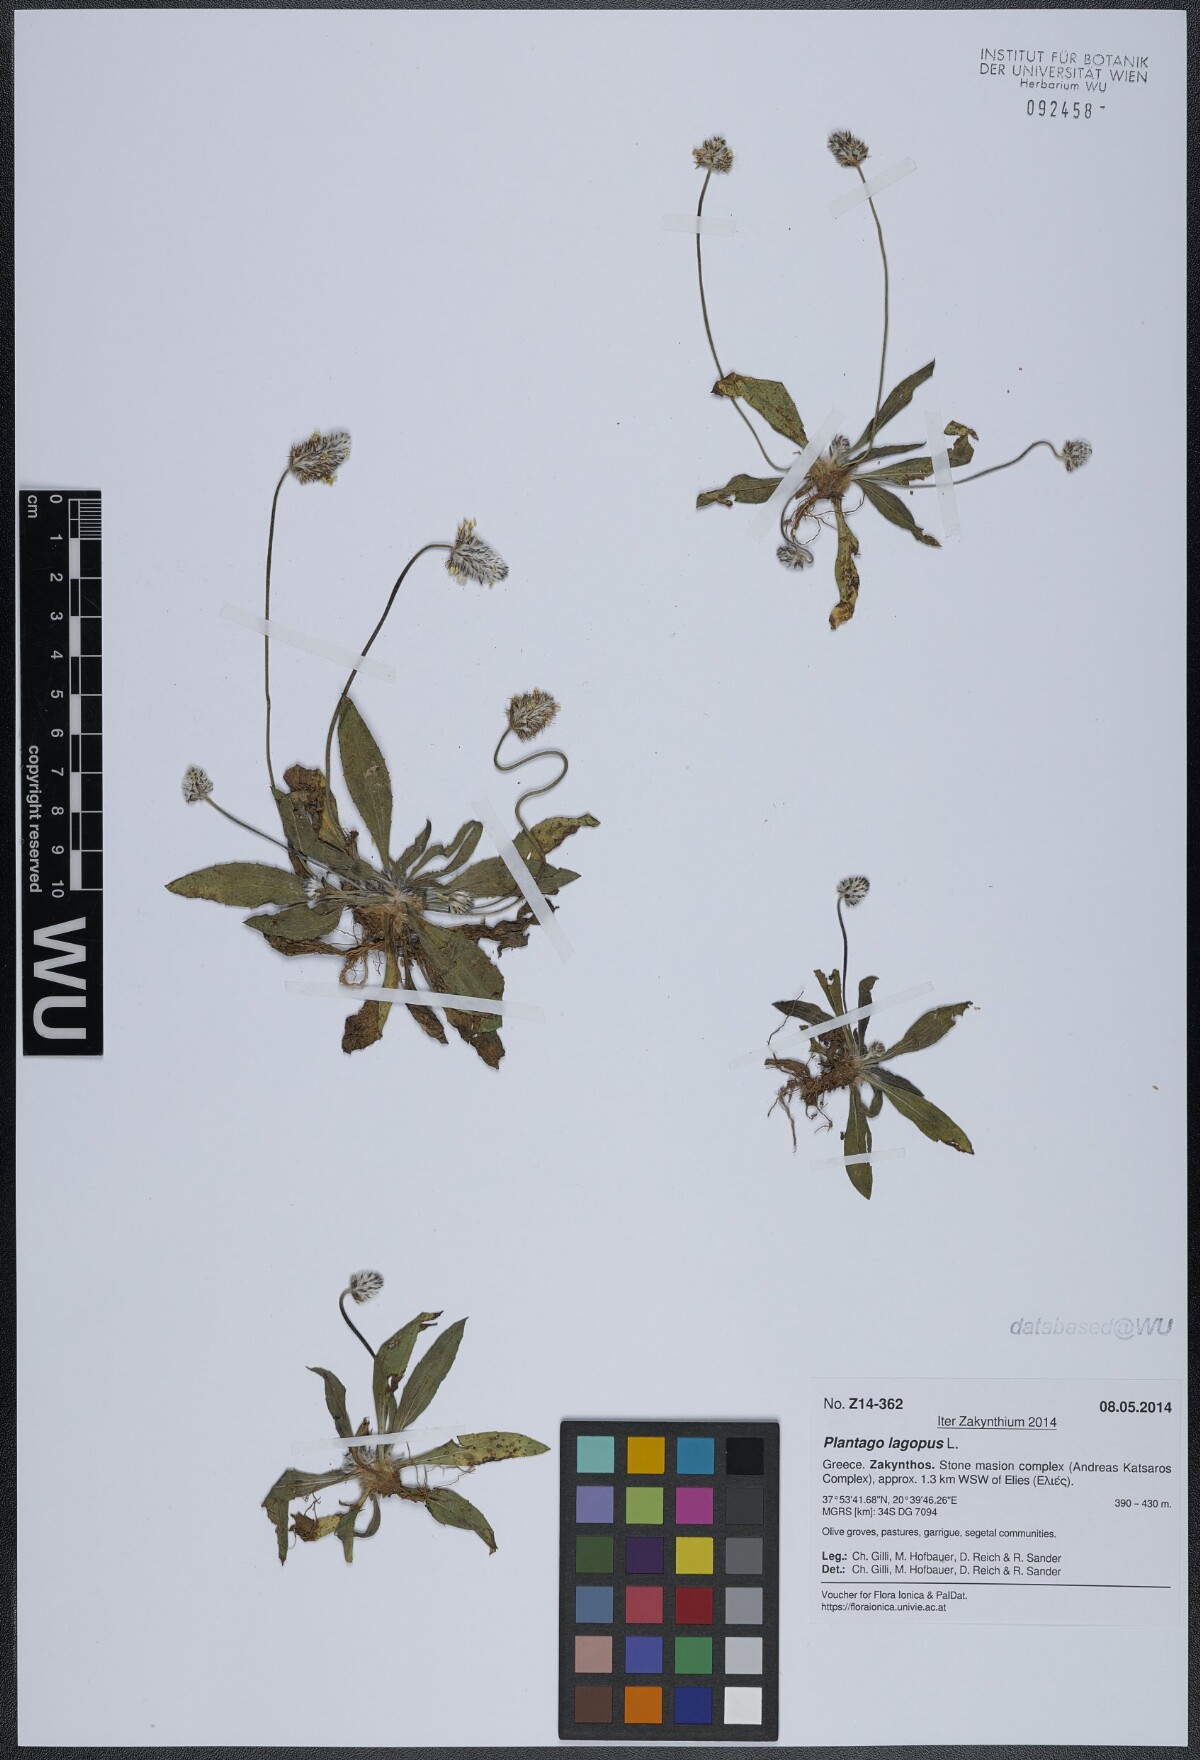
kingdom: Plantae
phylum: Tracheophyta
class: Magnoliopsida
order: Lamiales
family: Plantaginaceae
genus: Plantago
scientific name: Plantago lagopus
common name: Hare-foot plantain
